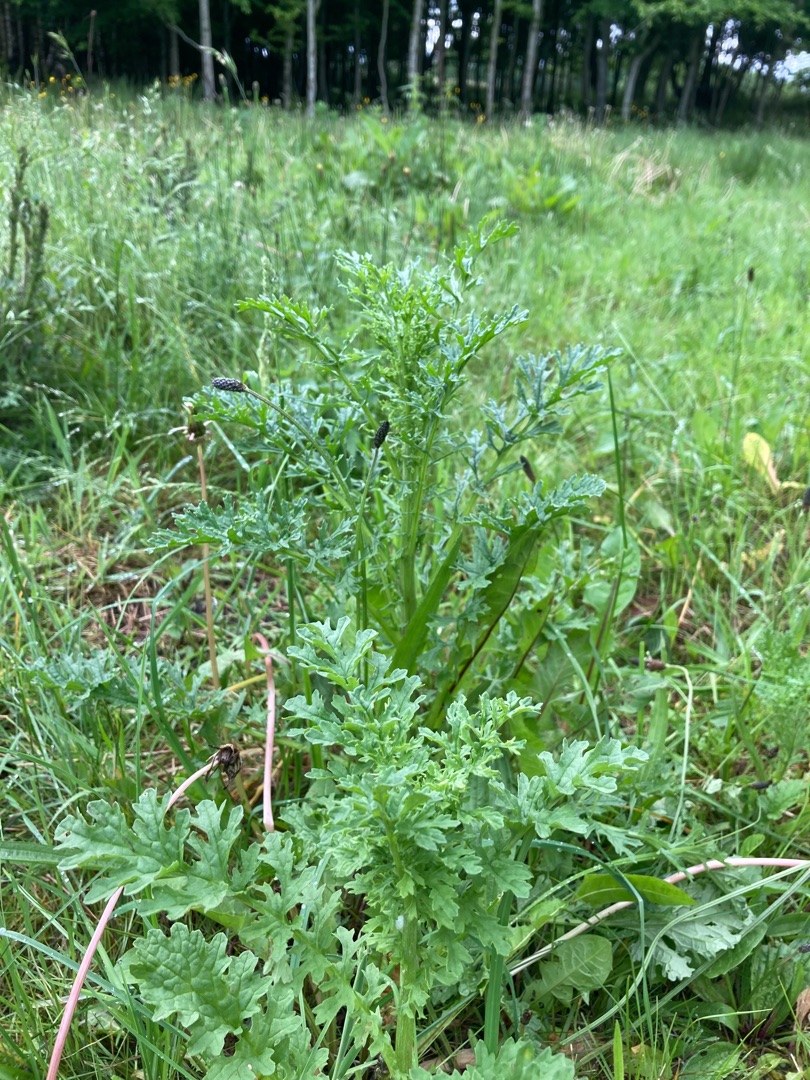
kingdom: Plantae
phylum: Tracheophyta
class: Magnoliopsida
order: Asterales
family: Asteraceae
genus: Jacobaea
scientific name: Jacobaea vulgaris
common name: Eng-brandbæger
